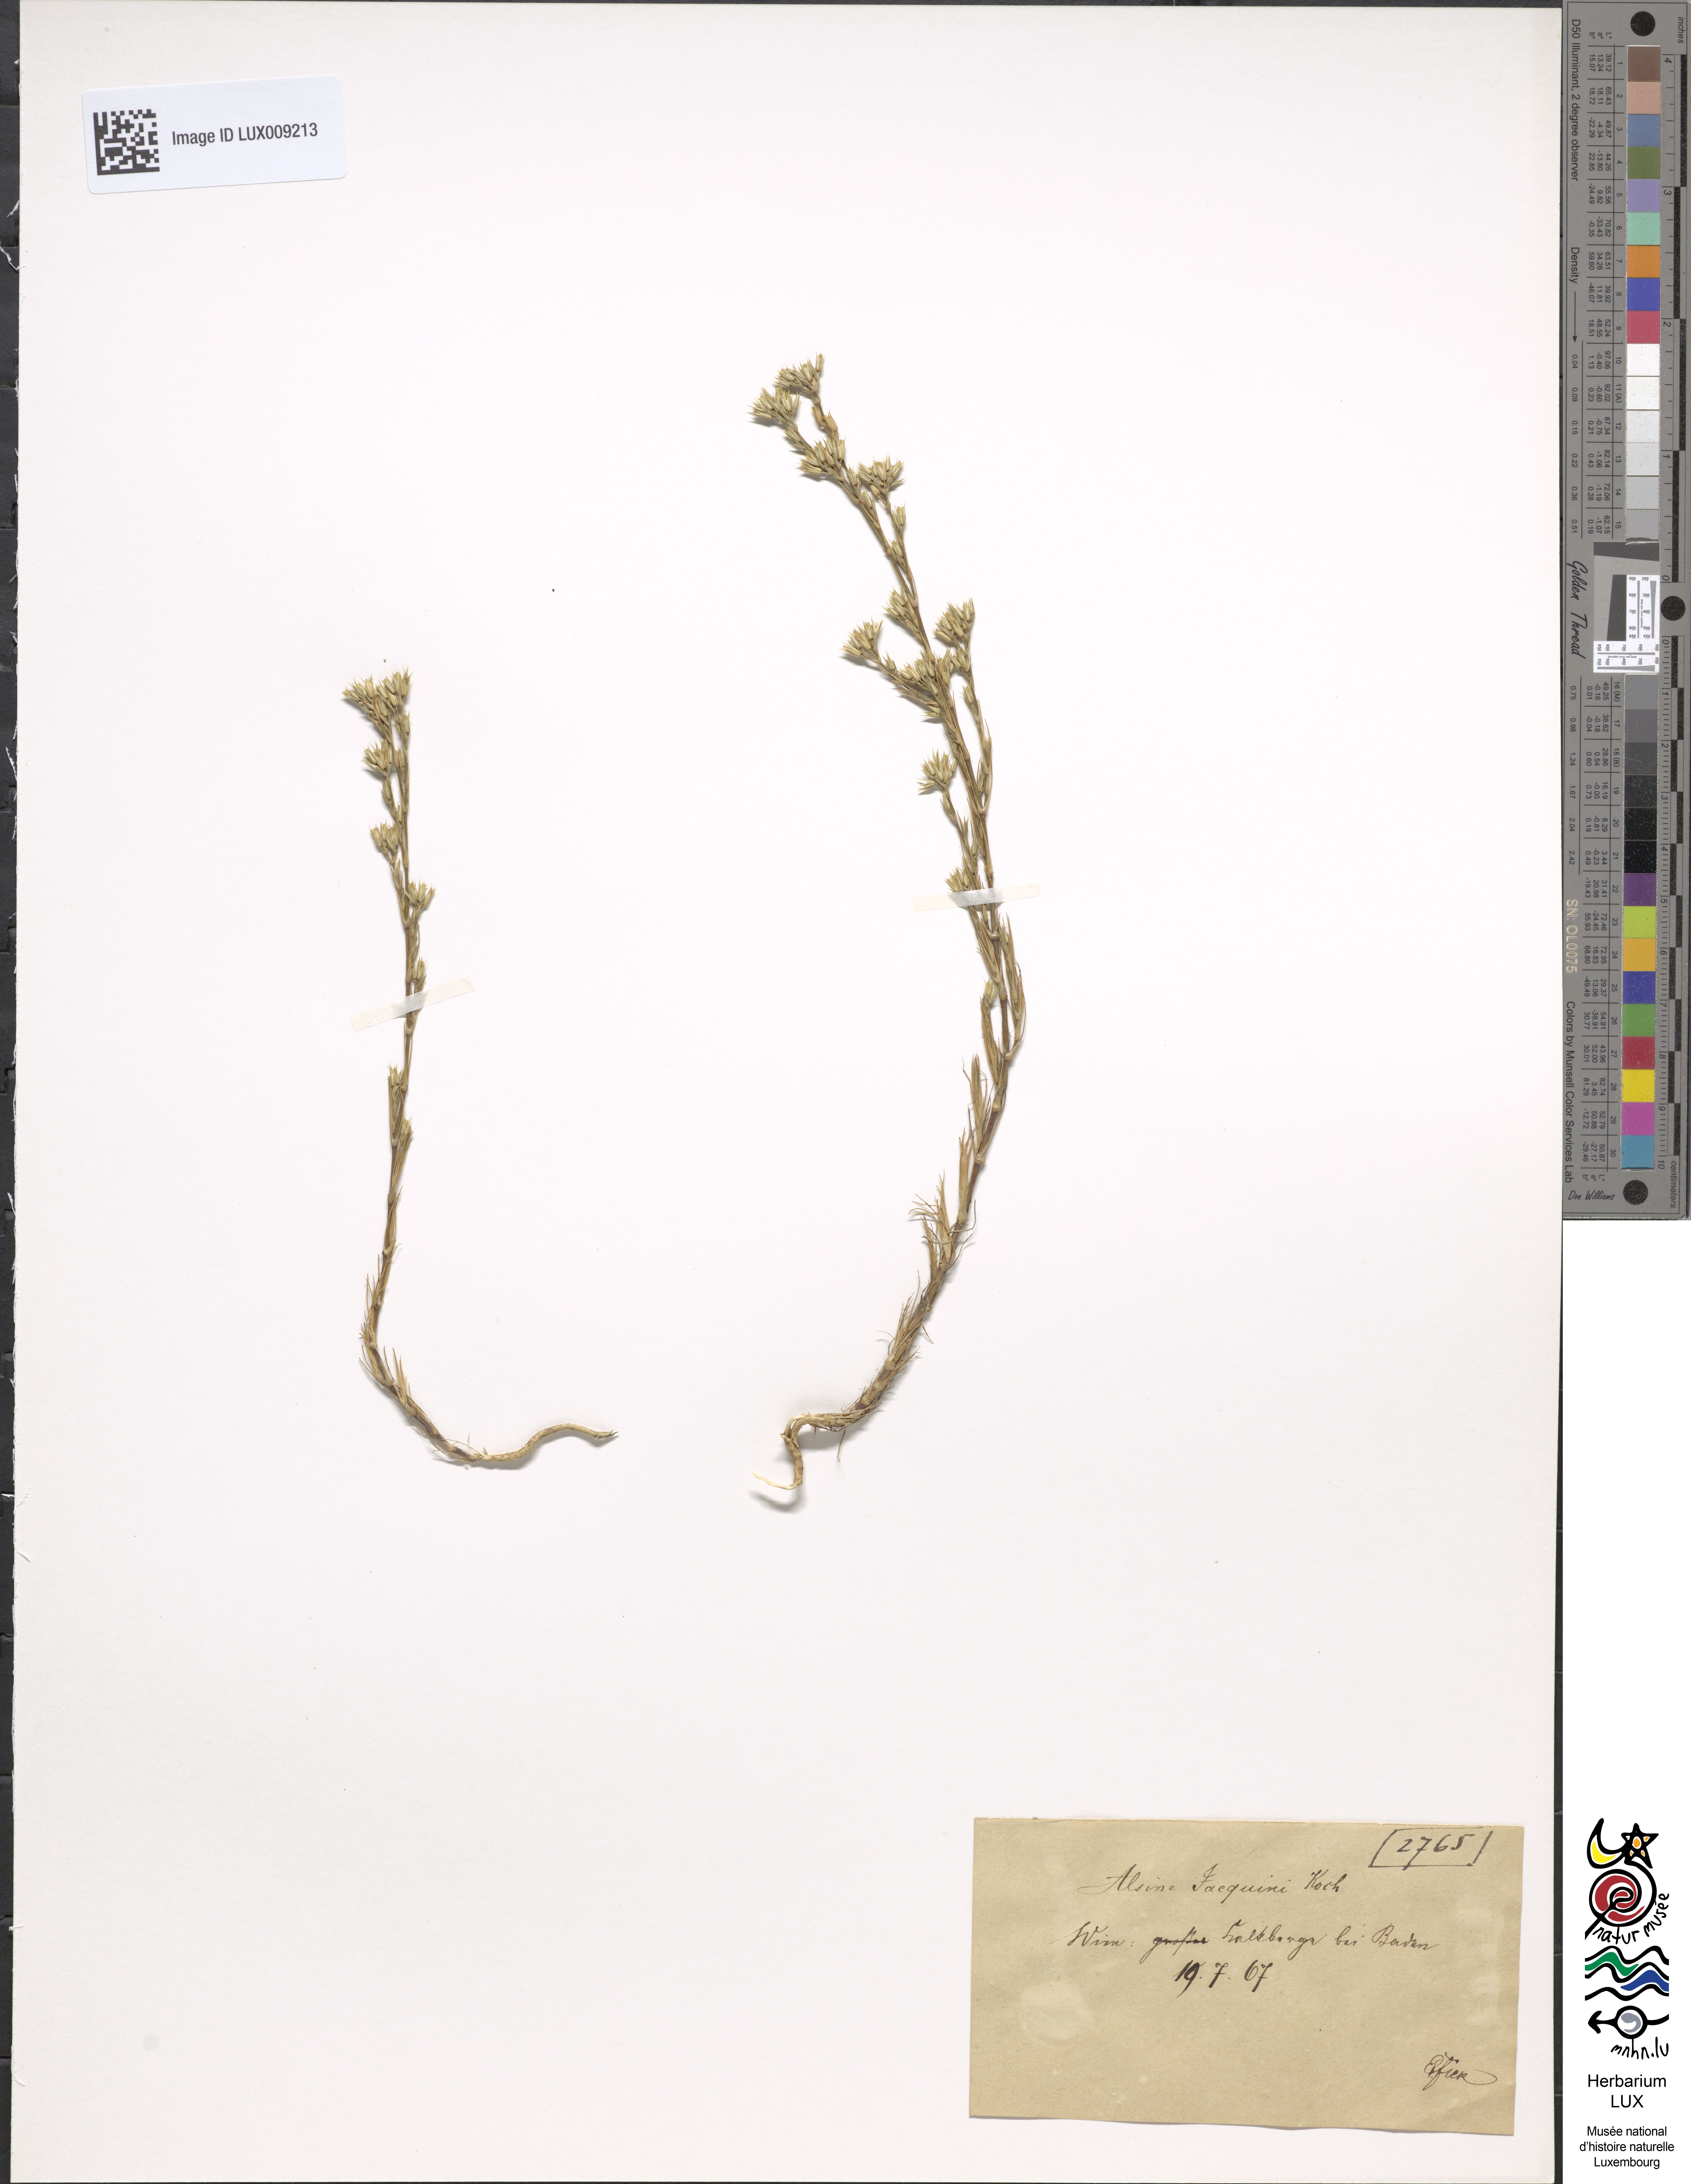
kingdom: Plantae
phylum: Tracheophyta
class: Magnoliopsida
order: Caryophyllales
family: Caryophyllaceae
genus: Minuartia
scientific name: Minuartia mucronata
